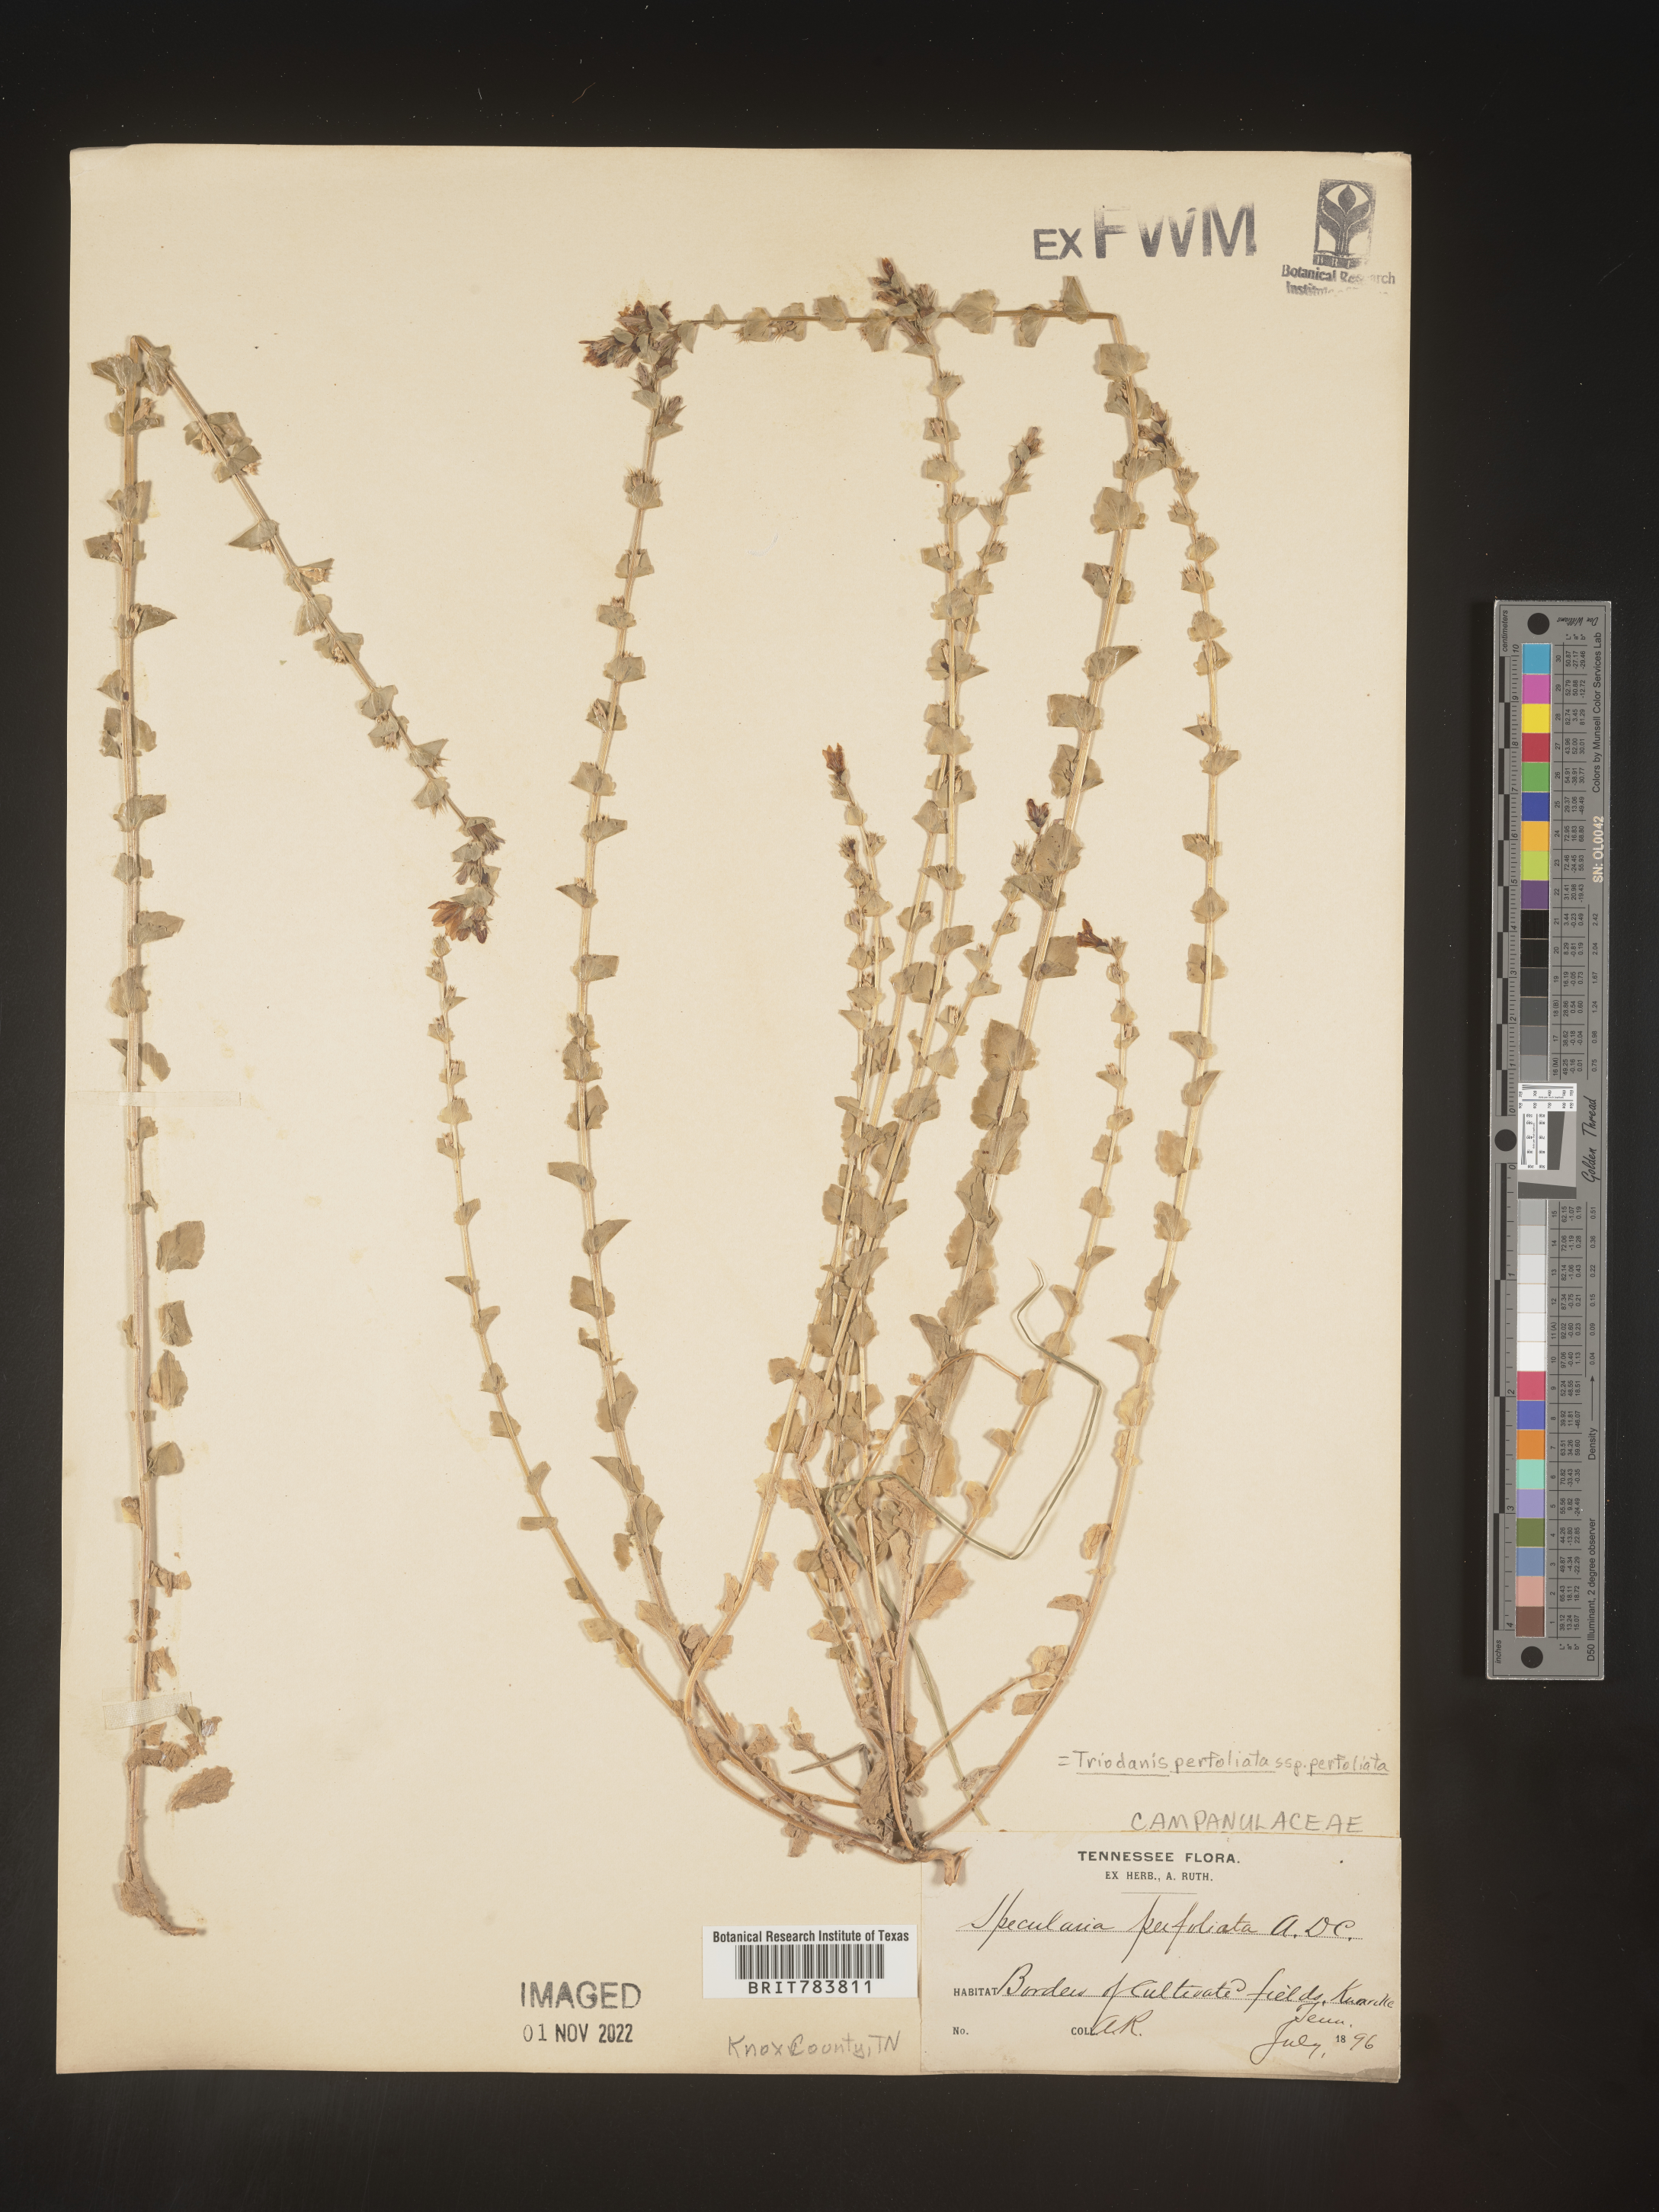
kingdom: Plantae
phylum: Tracheophyta
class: Magnoliopsida
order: Asterales
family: Campanulaceae
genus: Triodanis
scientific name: Triodanis perfoliata
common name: Clasping venus' looking-glass
